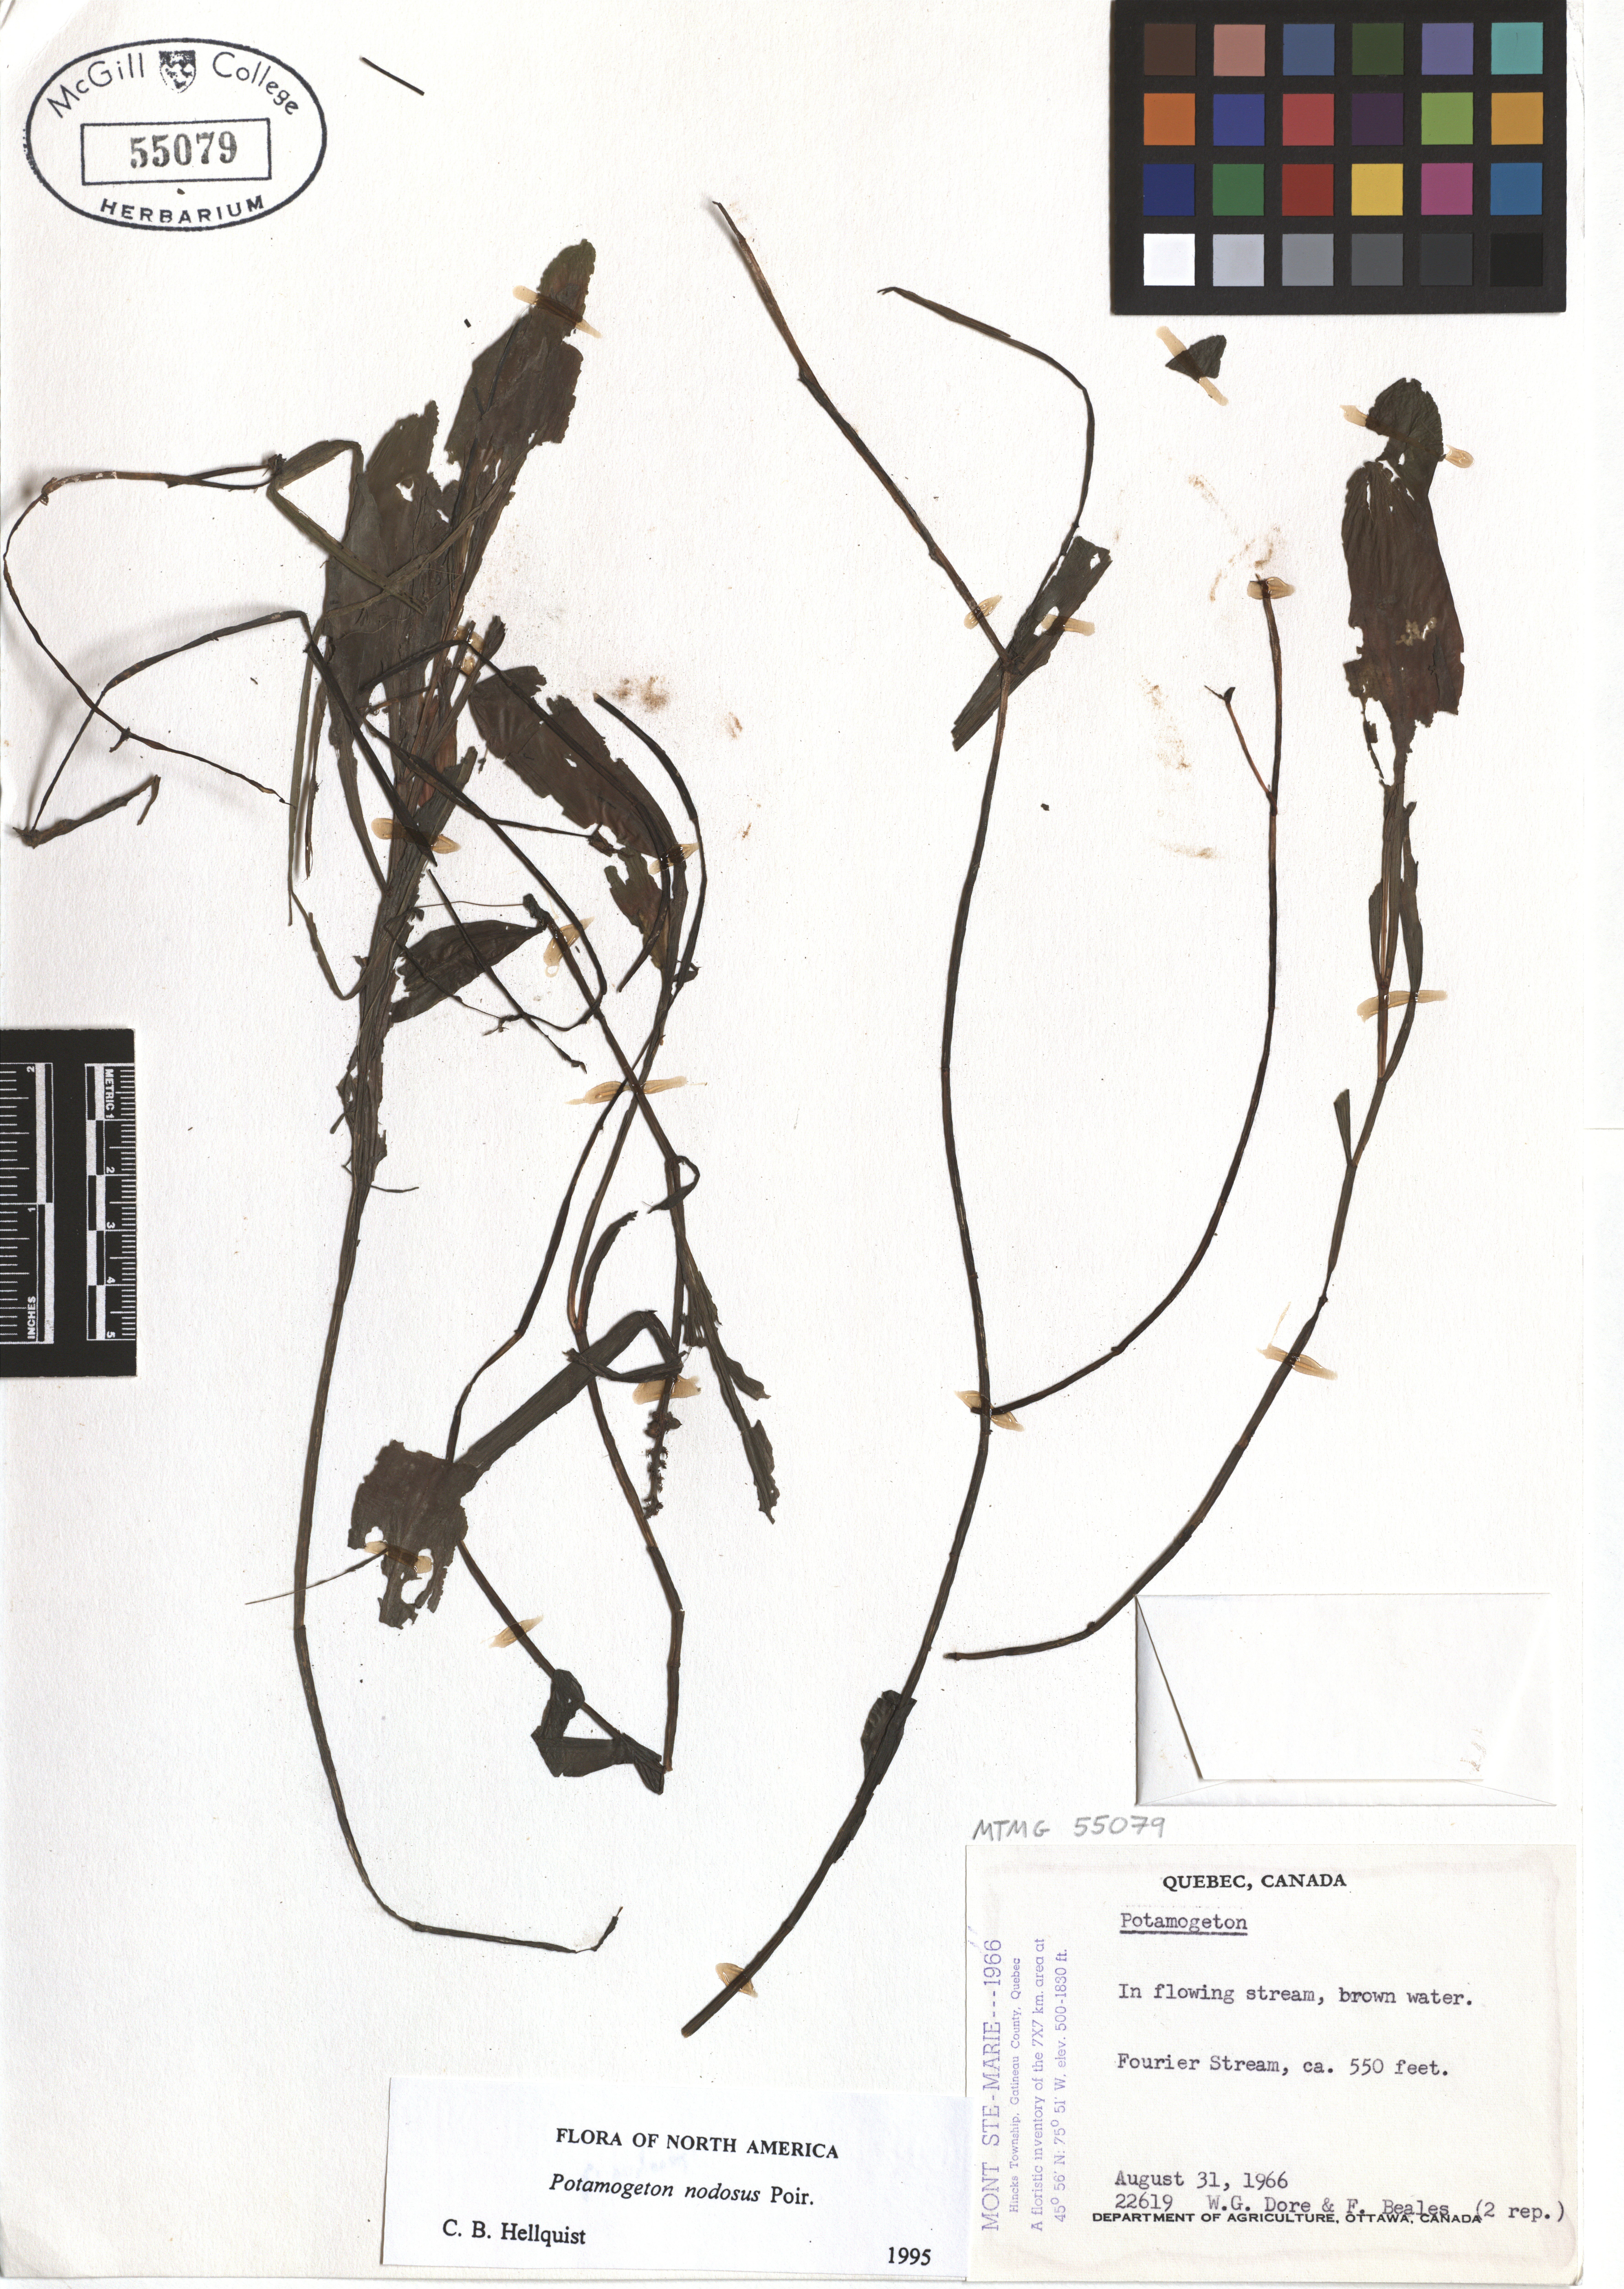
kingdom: Plantae
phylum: Tracheophyta
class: Liliopsida
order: Alismatales
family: Potamogetonaceae
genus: Potamogeton
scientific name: Potamogeton nodosus
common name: Loddon pondweed
